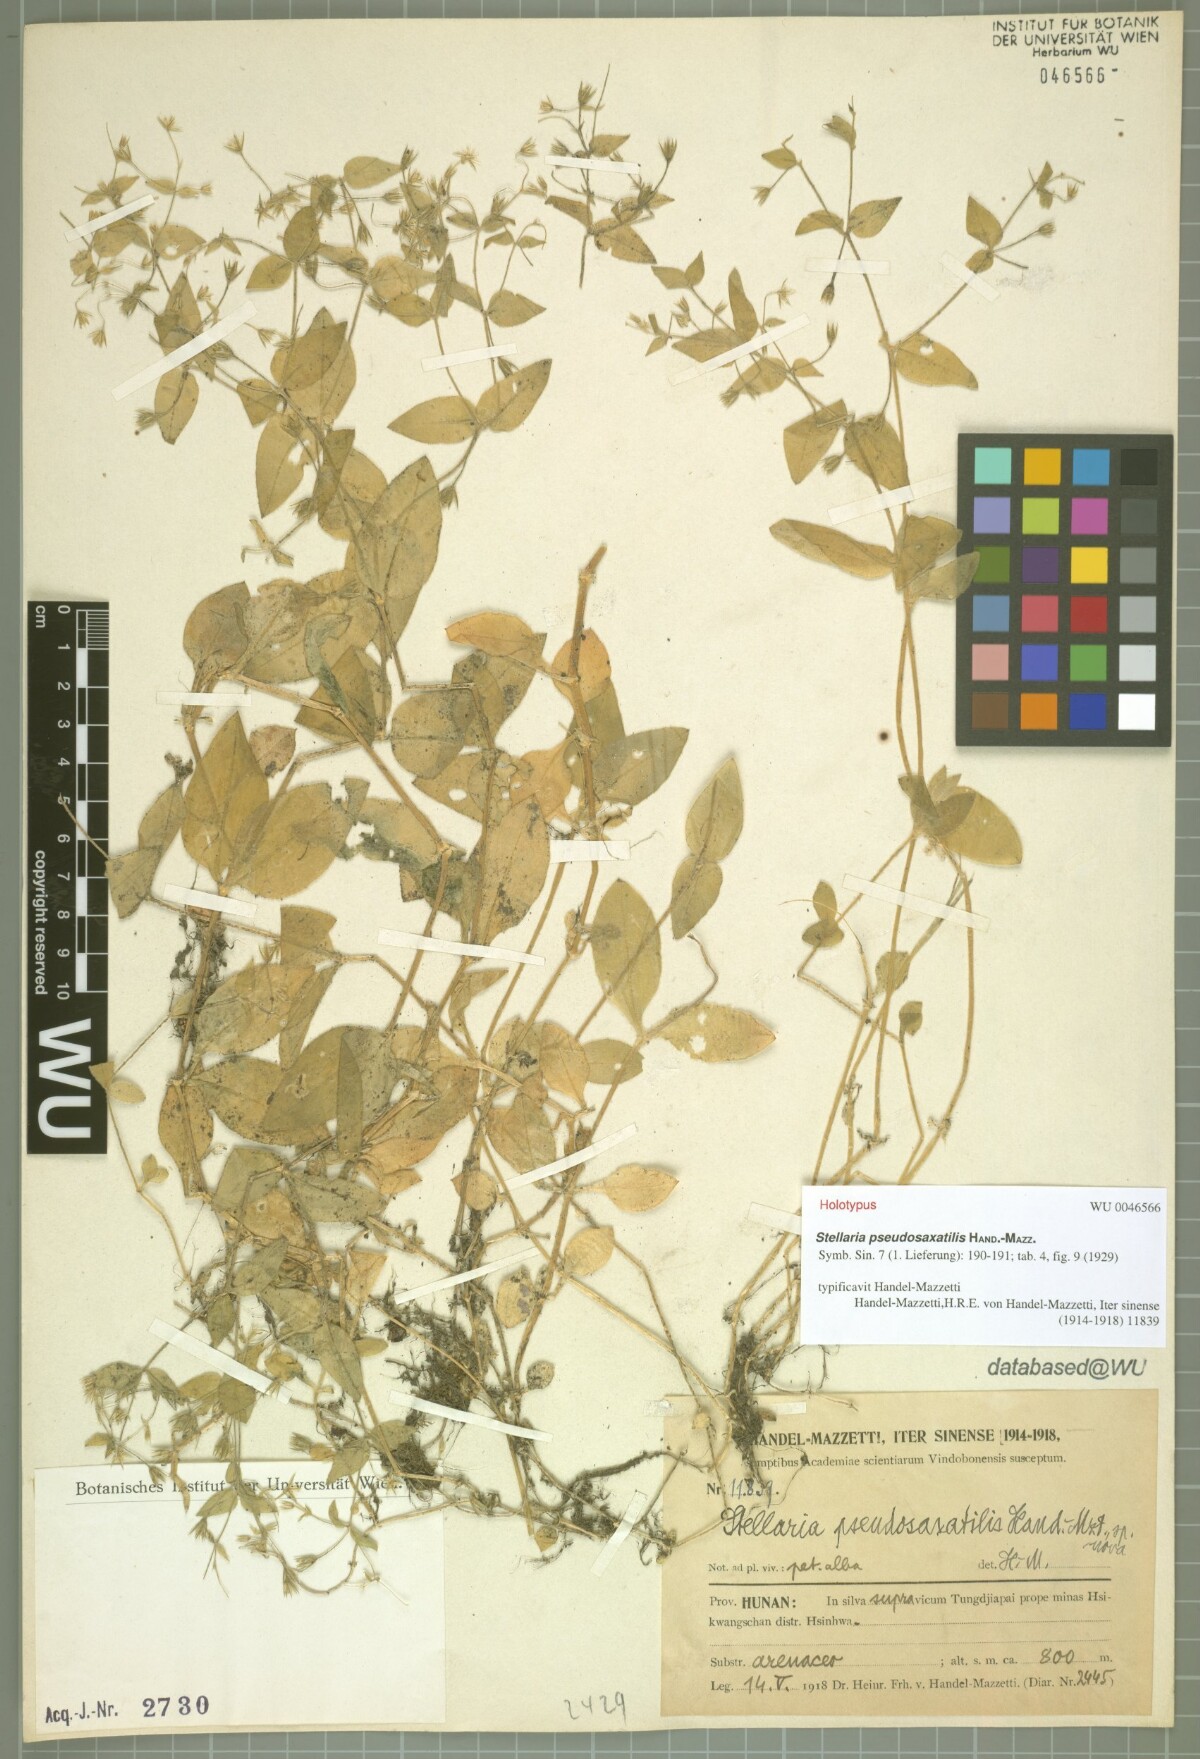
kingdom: Plantae
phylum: Tracheophyta
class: Magnoliopsida
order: Caryophyllales
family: Caryophyllaceae
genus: Stellaria
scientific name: Stellaria vestita
